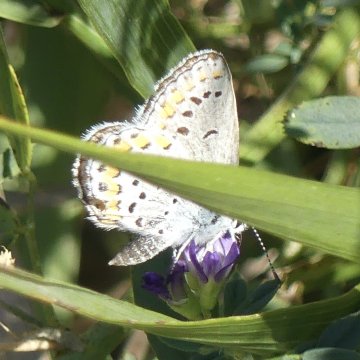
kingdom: Animalia
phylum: Arthropoda
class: Insecta
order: Lepidoptera
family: Lycaenidae
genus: Lycaeides
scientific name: Lycaeides melissa
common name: Melissa Blue
